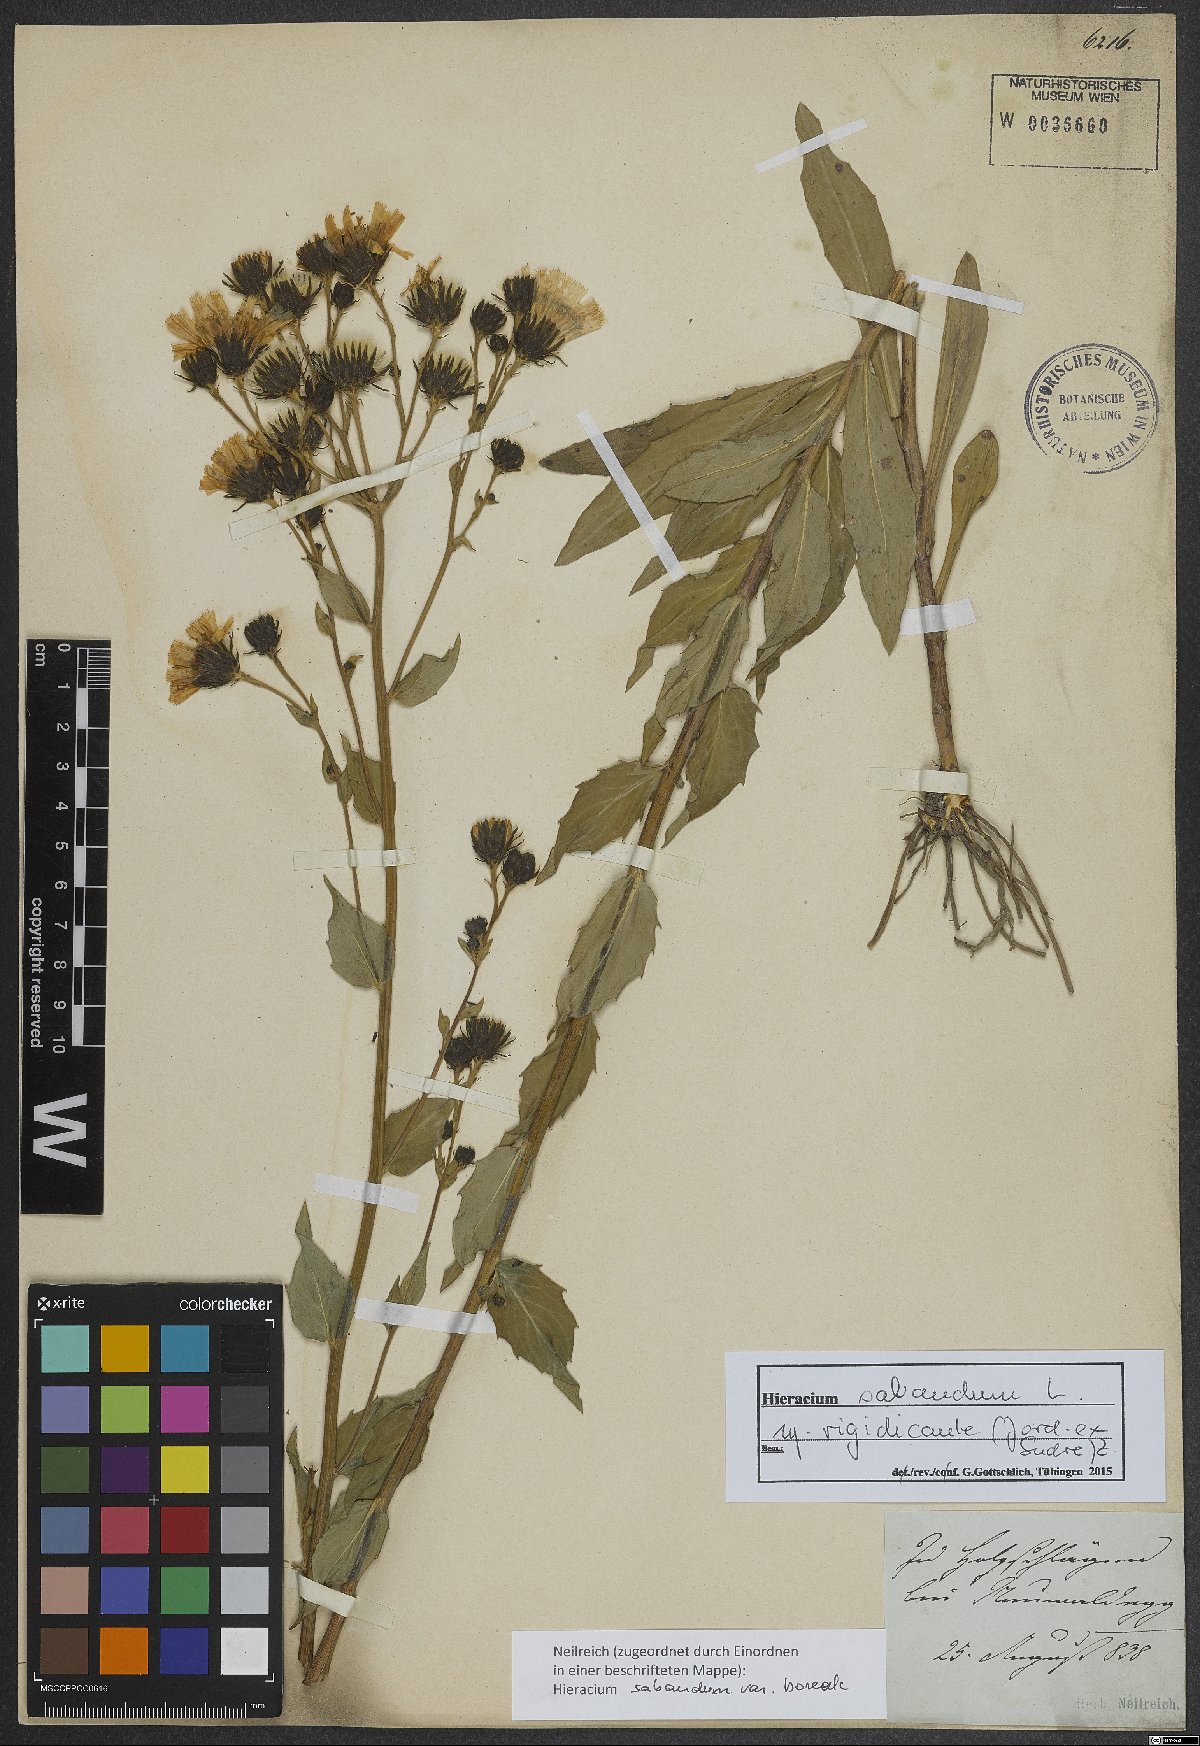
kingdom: Plantae
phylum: Tracheophyta
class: Magnoliopsida
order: Asterales
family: Asteraceae
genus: Hieracium
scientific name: Hieracium sabaudum
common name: New england hawkweed
